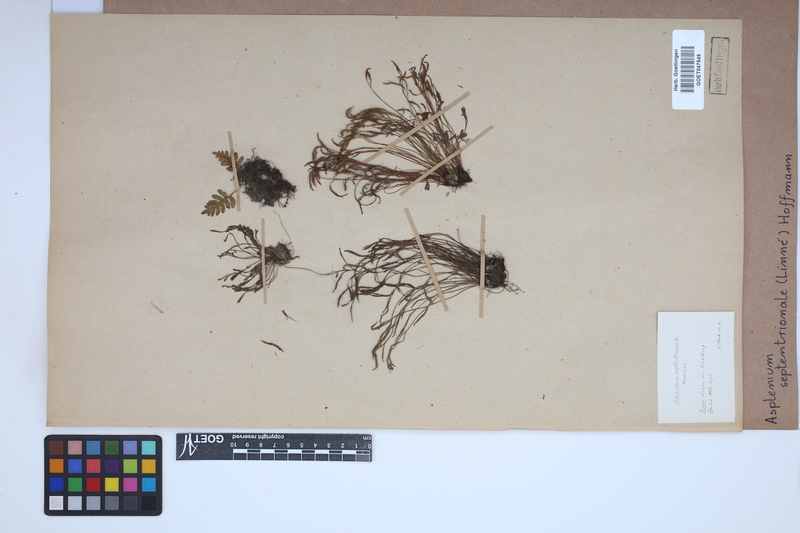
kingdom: Plantae
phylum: Tracheophyta
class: Polypodiopsida
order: Polypodiales
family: Aspleniaceae
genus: Asplenium
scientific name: Asplenium septentrionale
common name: Forked spleenwort
